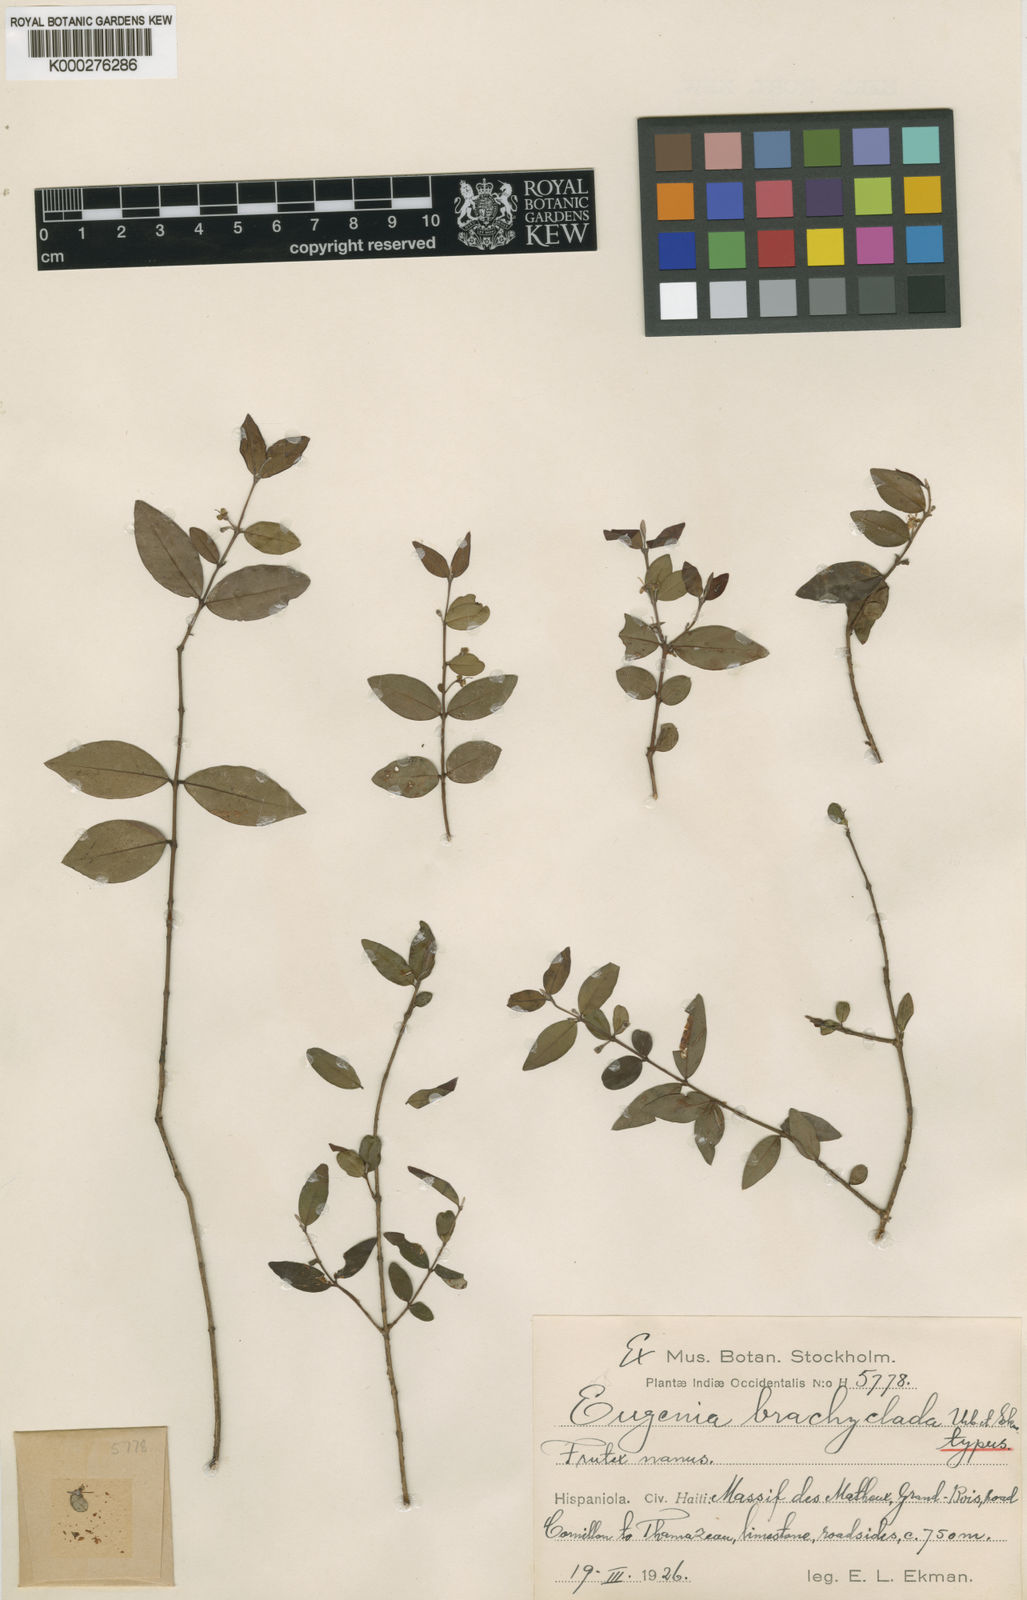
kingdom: Plantae
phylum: Tracheophyta
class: Magnoliopsida
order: Myrtales
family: Myrtaceae
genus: Eugenia
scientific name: Eugenia brachyclada
